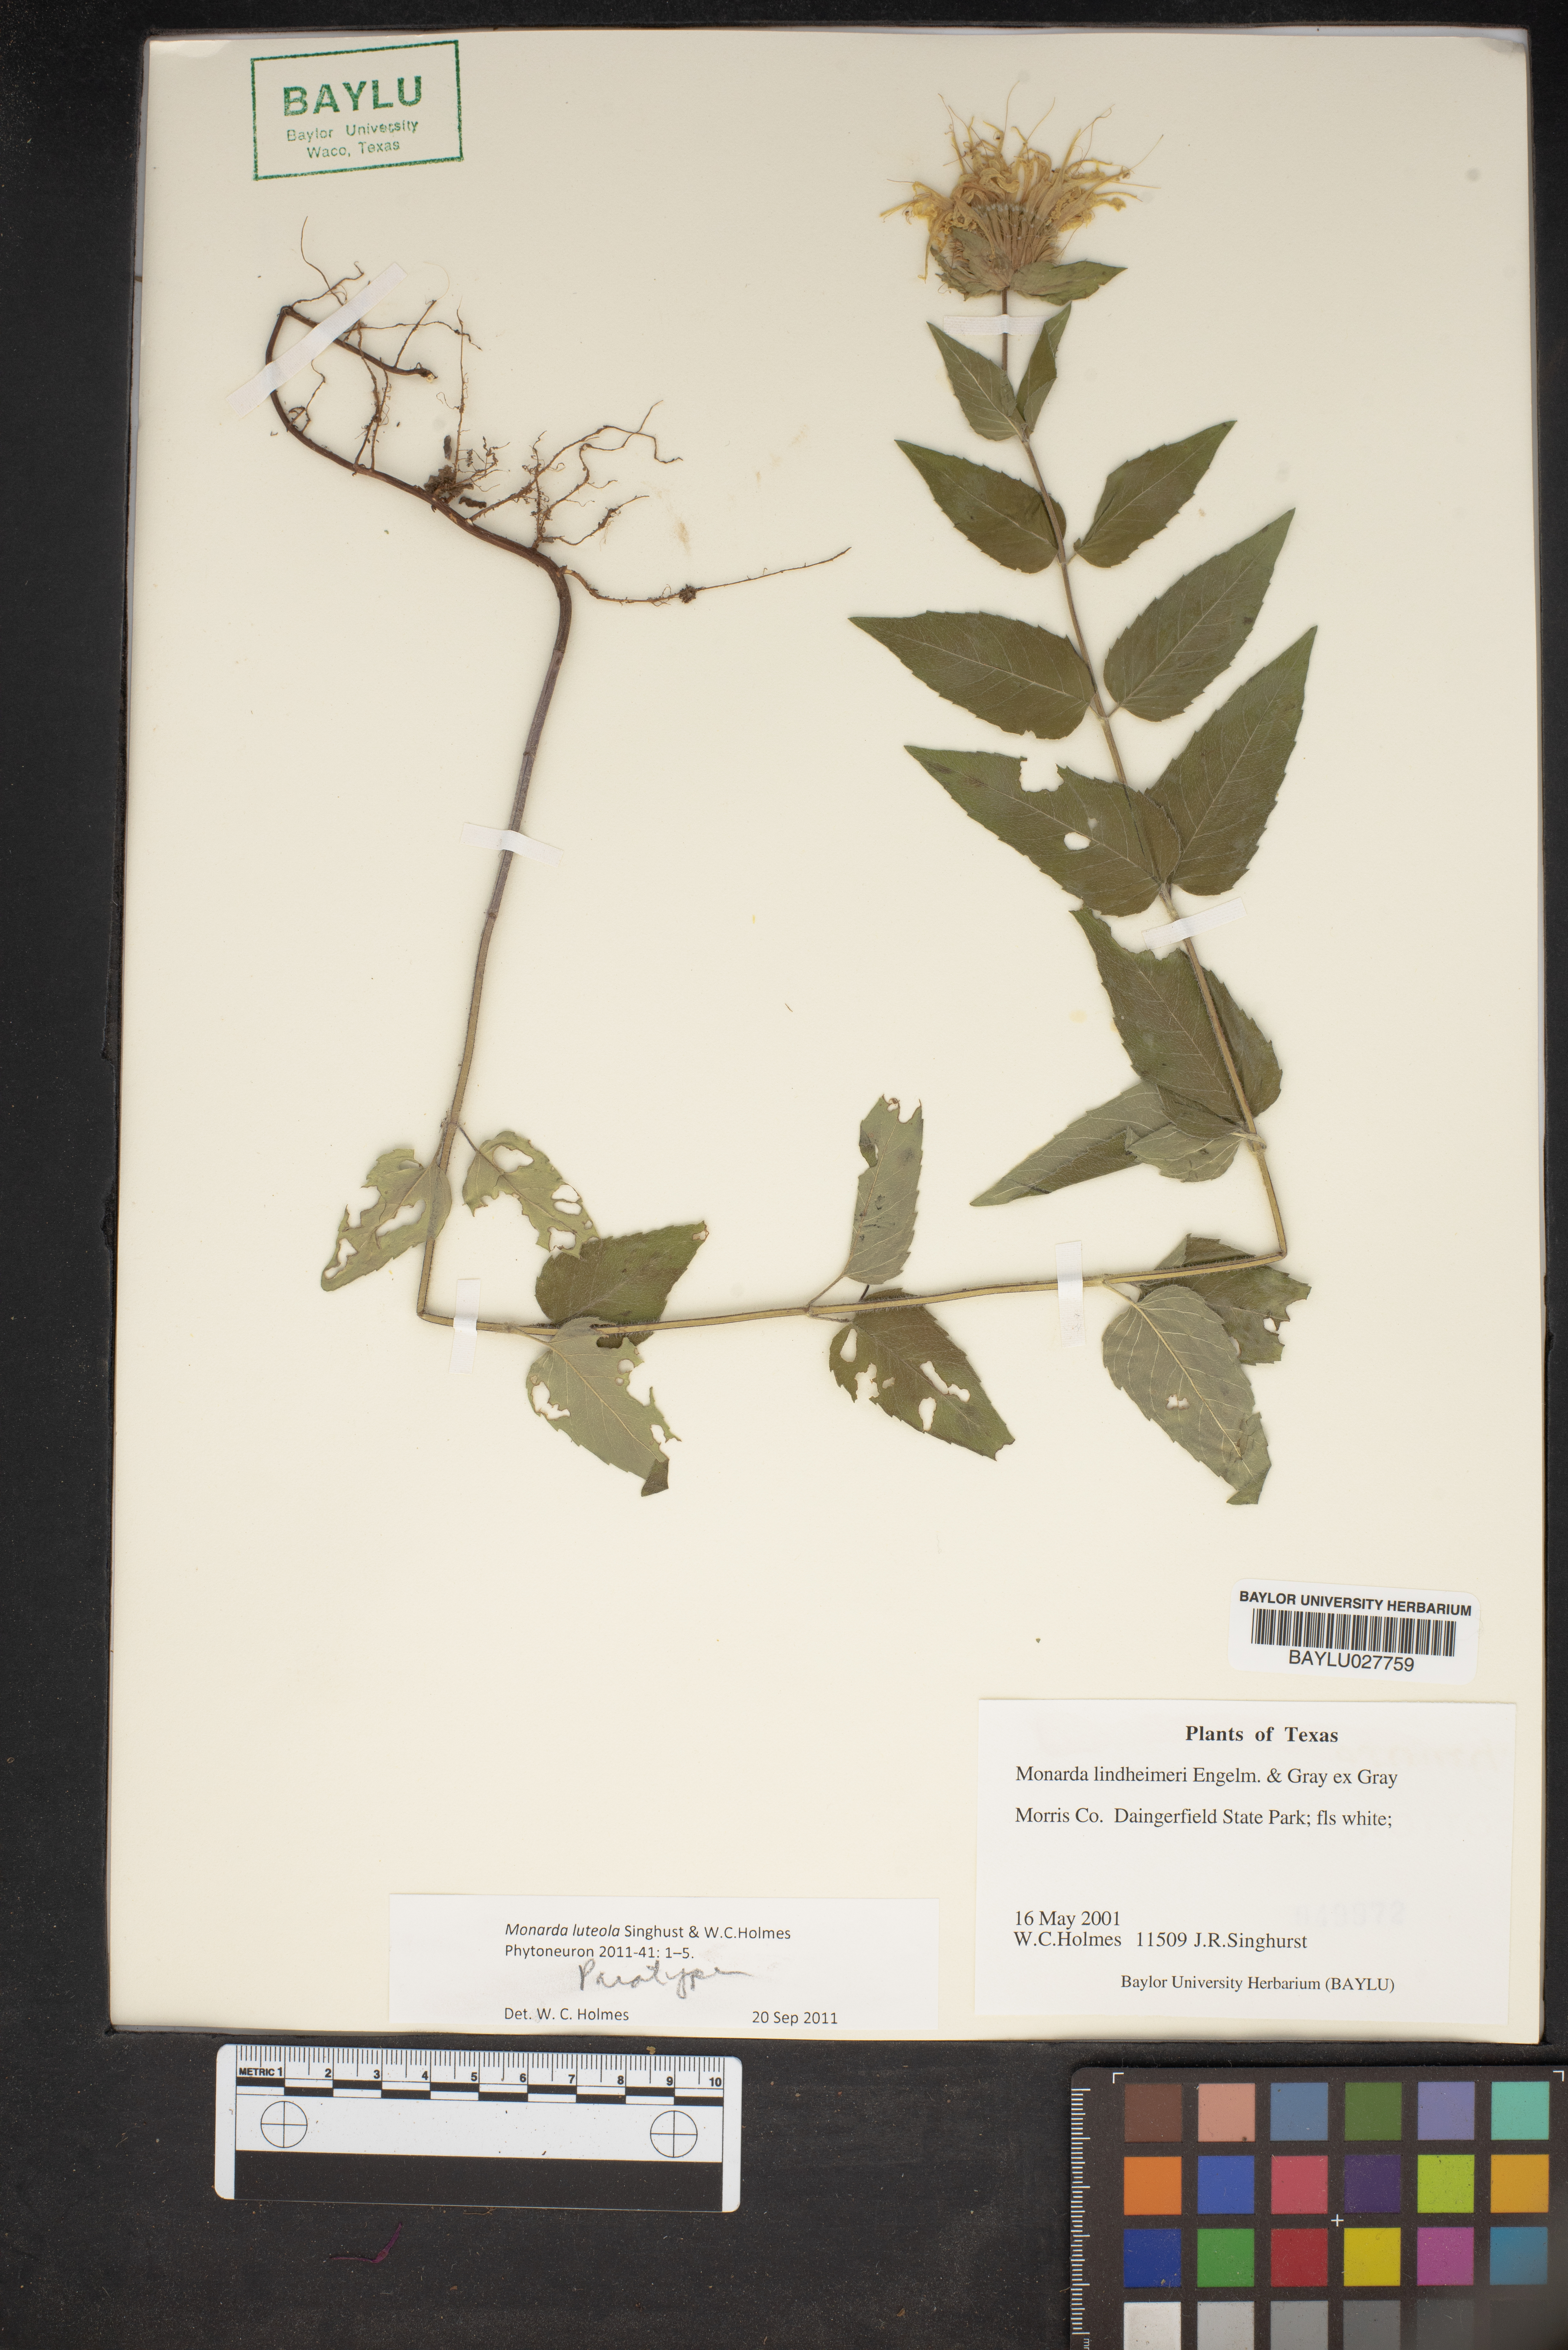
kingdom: Plantae
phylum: Tracheophyta
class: Magnoliopsida
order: Lamiales
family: Lamiaceae
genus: Monarda
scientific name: Monarda luteola
